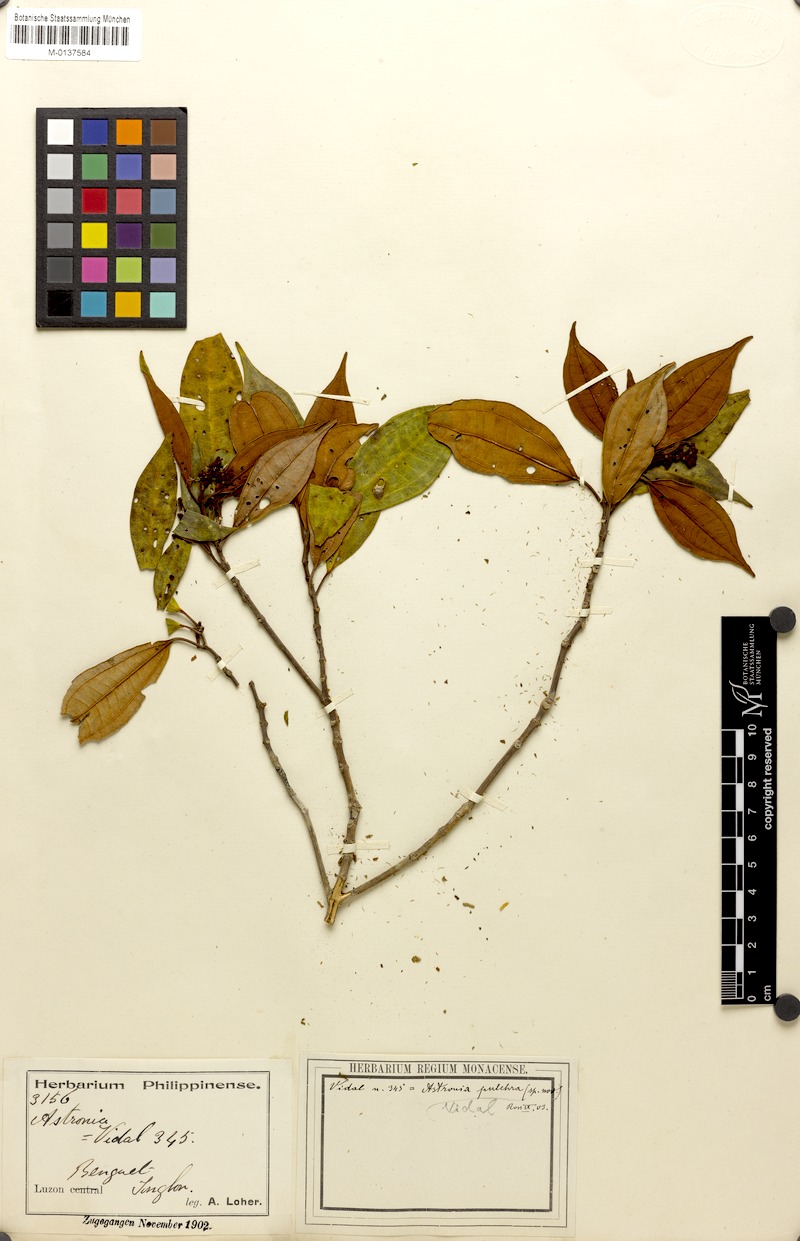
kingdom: Plantae
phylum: Tracheophyta
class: Magnoliopsida
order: Myrtales
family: Melastomataceae
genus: Astronia
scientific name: Astronia pulchra
